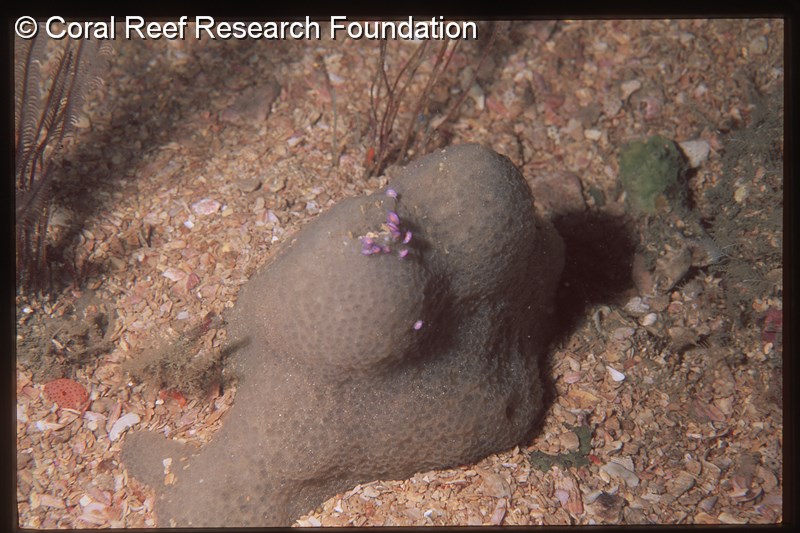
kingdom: Animalia
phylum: Chordata
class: Ascidiacea
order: Aplousobranchia
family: Polycitoridae
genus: Eudistoma
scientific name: Eudistoma
